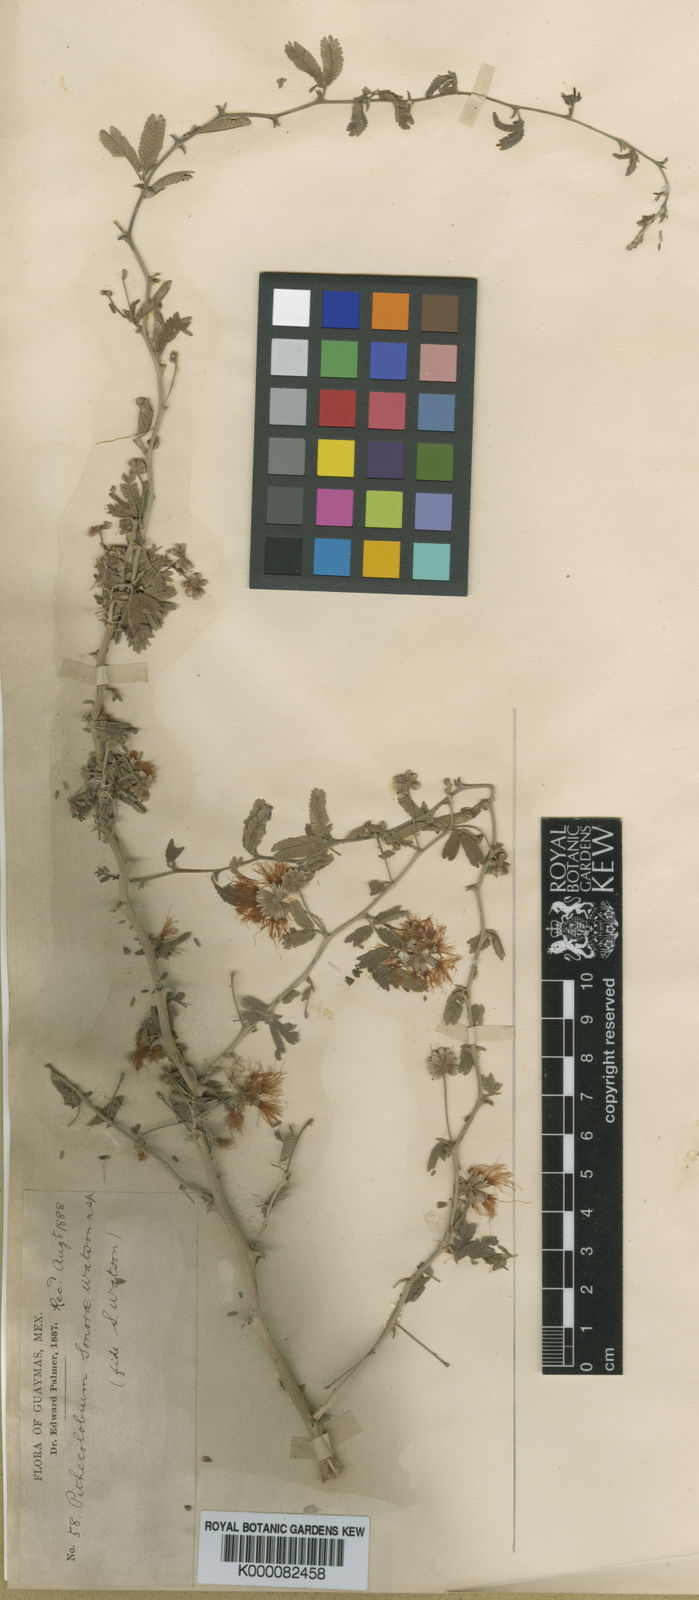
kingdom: Plantae
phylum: Tracheophyta
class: Magnoliopsida
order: Fabales
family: Fabaceae
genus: Havardia
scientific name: Havardia sonorae
